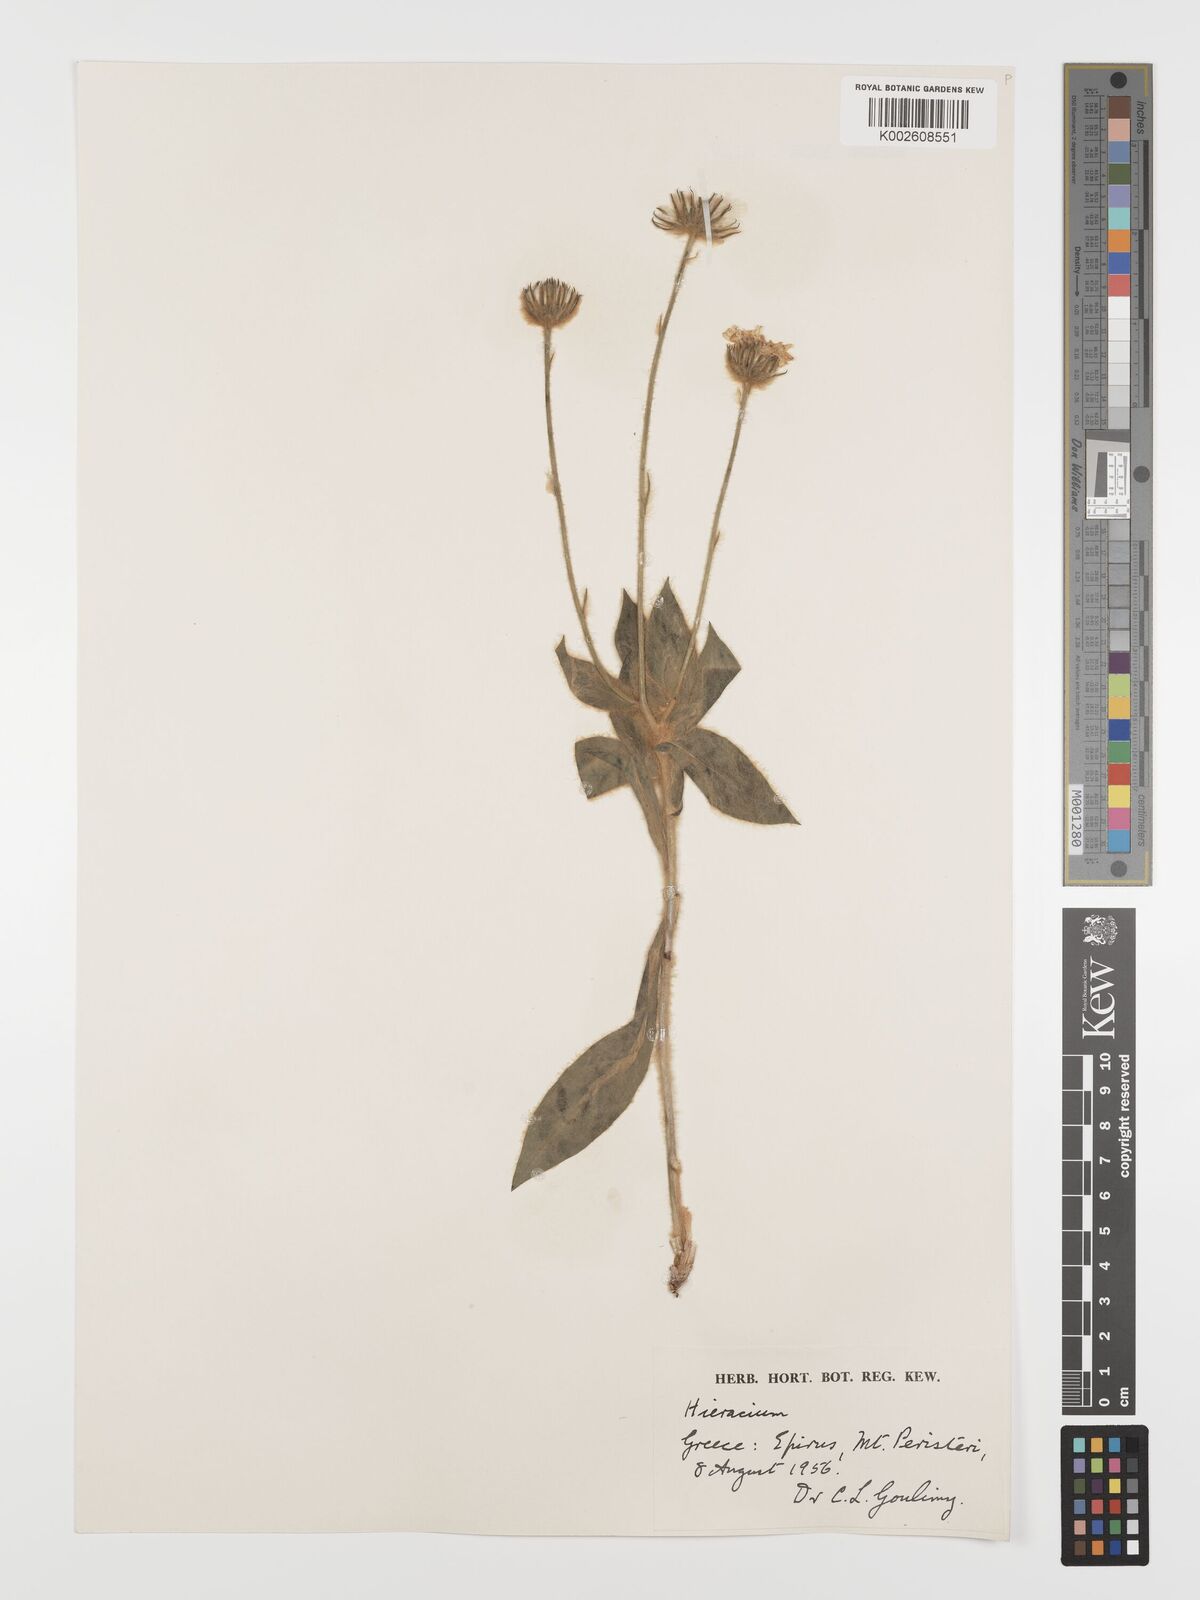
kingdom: Plantae
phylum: Tracheophyta
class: Magnoliopsida
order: Asterales
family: Asteraceae
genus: Hieracium
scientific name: Hieracium pannosum
